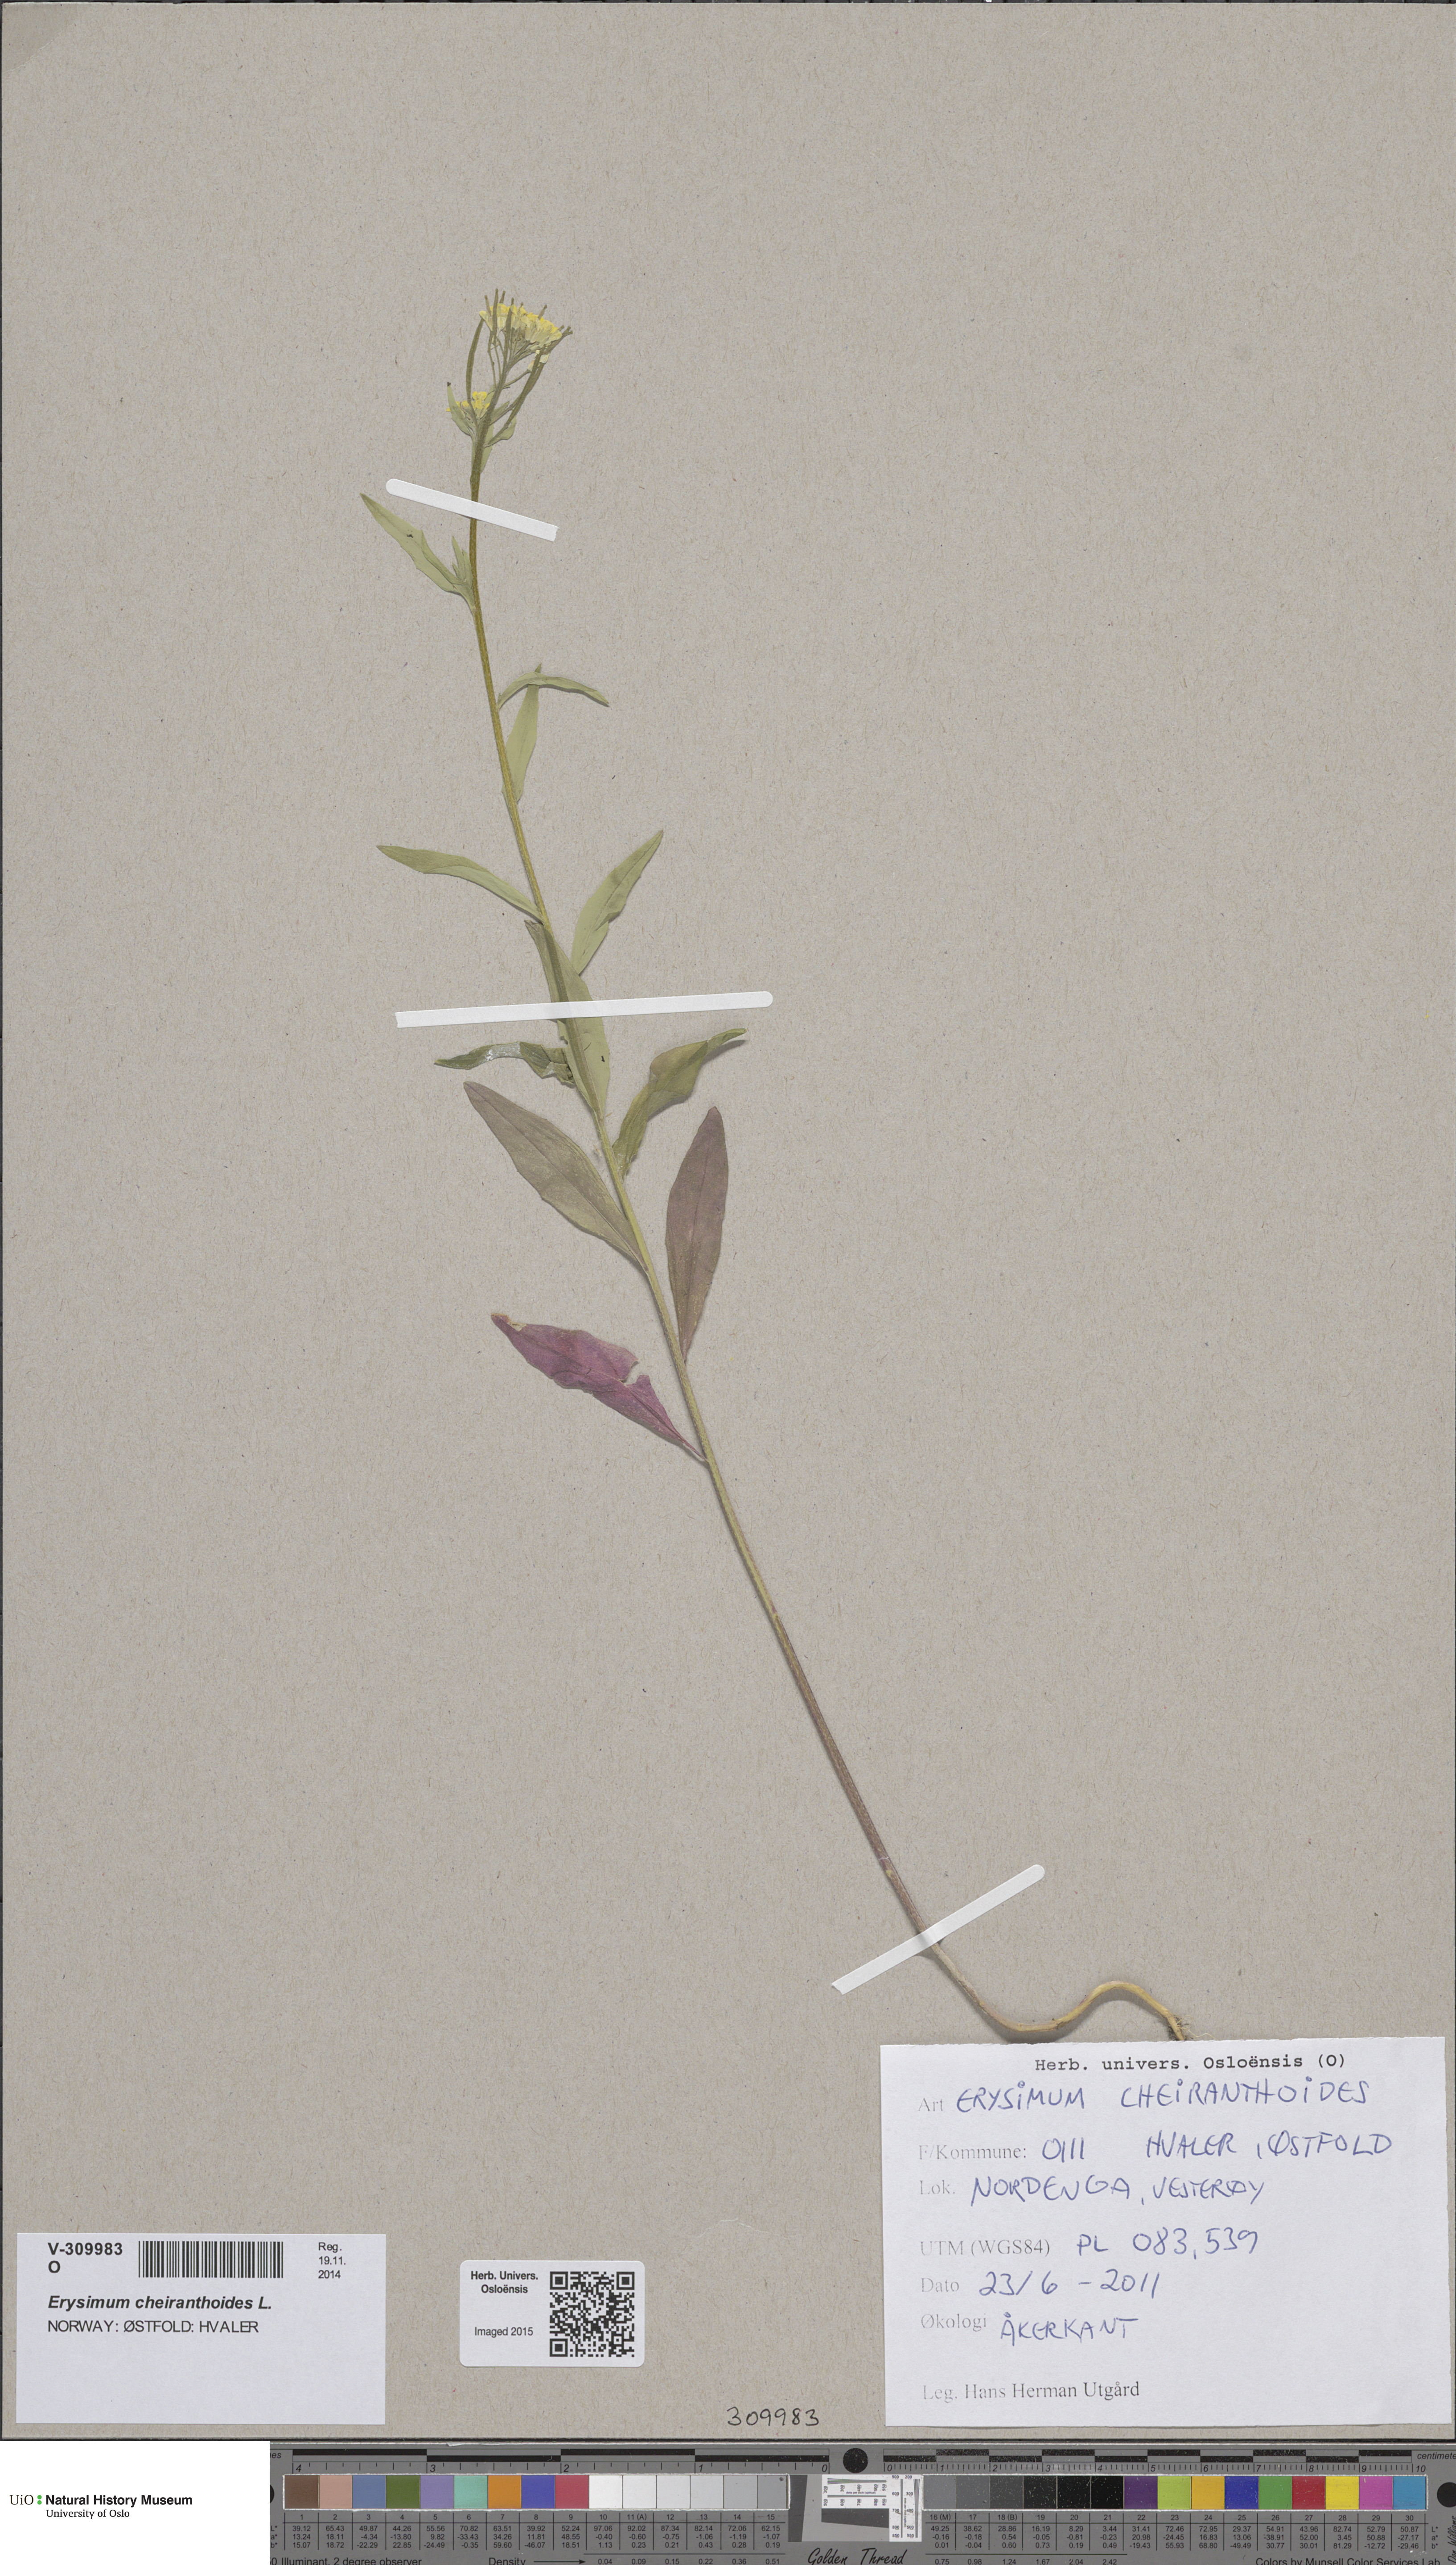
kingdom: Plantae
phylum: Tracheophyta
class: Magnoliopsida
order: Brassicales
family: Brassicaceae
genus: Erysimum
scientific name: Erysimum cheiranthoides
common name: Treacle mustard
